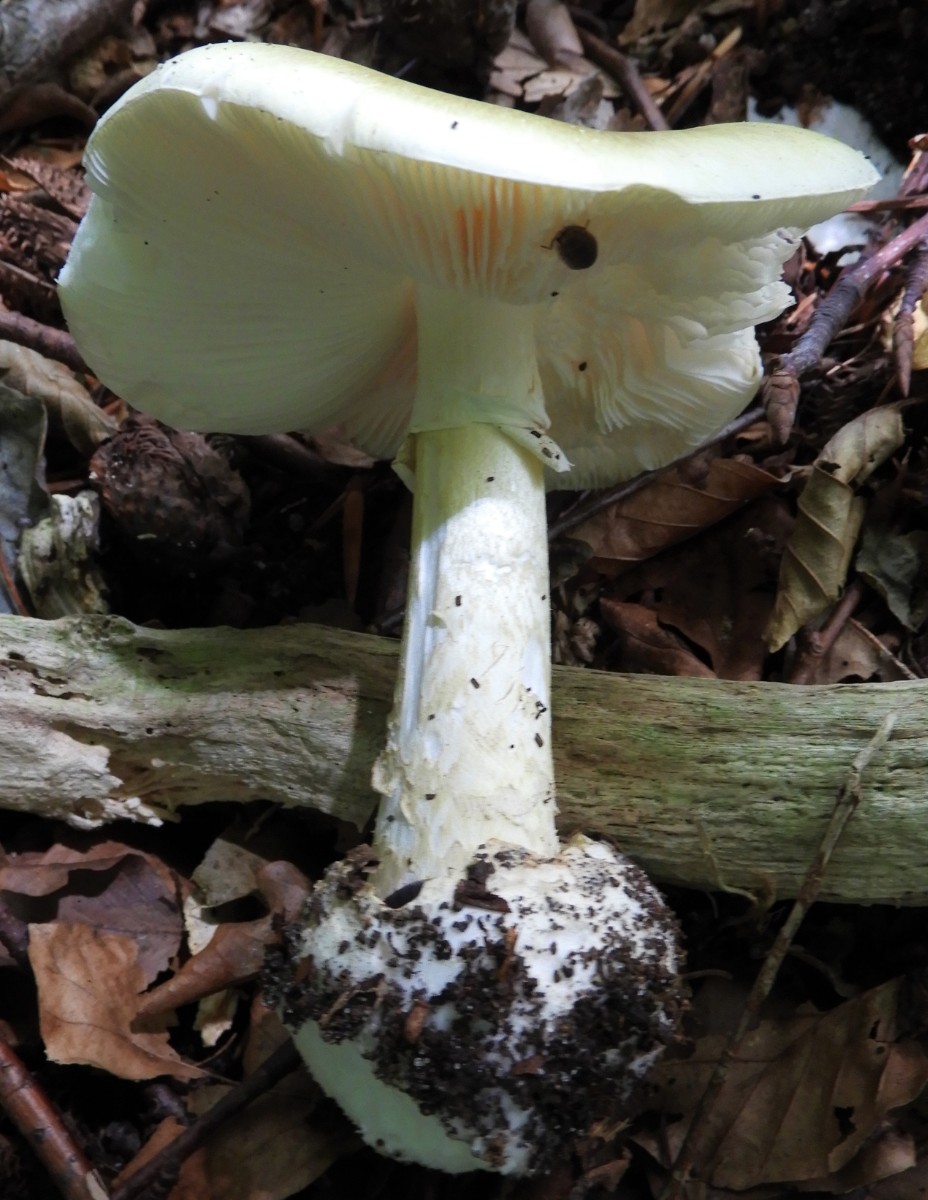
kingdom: Fungi
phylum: Basidiomycota
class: Agaricomycetes
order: Agaricales
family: Amanitaceae
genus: Amanita
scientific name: Amanita phalloides
